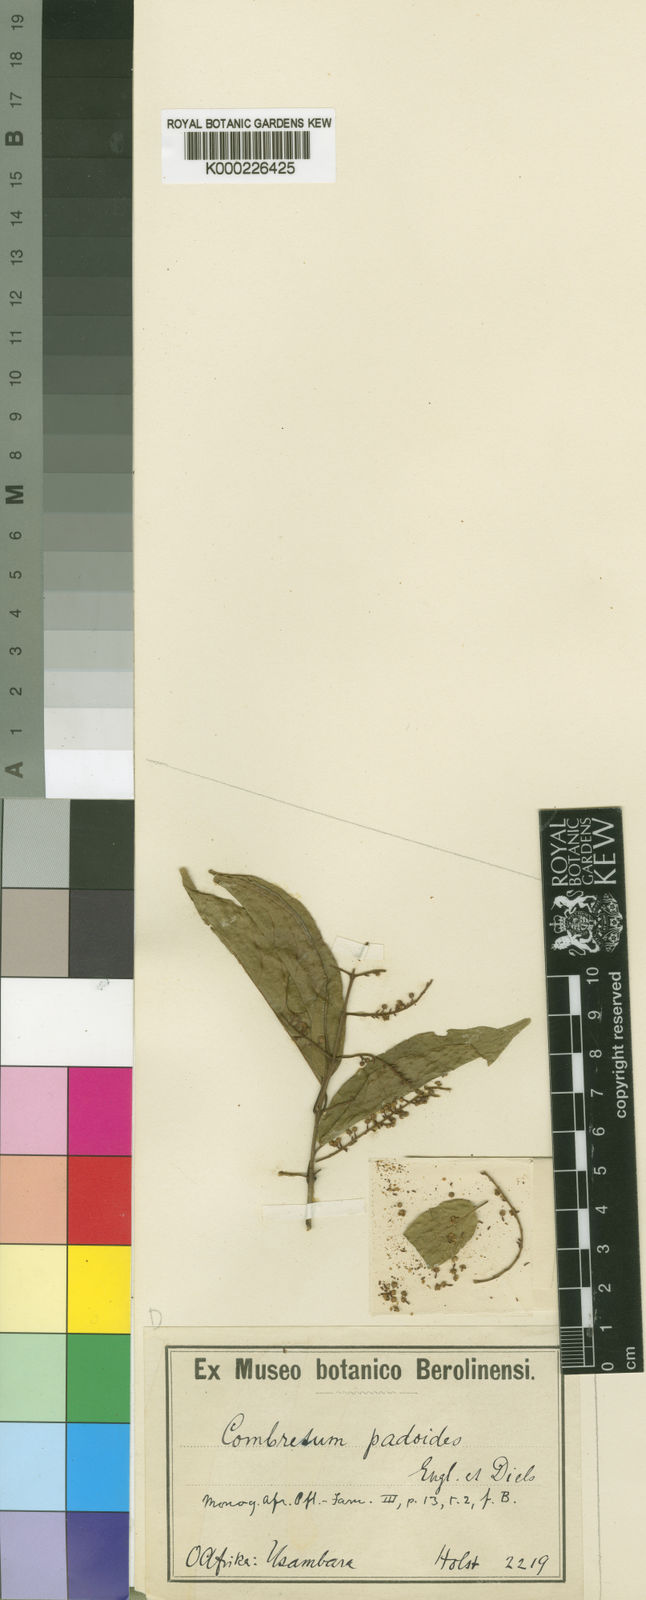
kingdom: Plantae
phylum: Tracheophyta
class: Magnoliopsida
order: Myrtales
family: Combretaceae
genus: Combretum
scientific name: Combretum padoides
